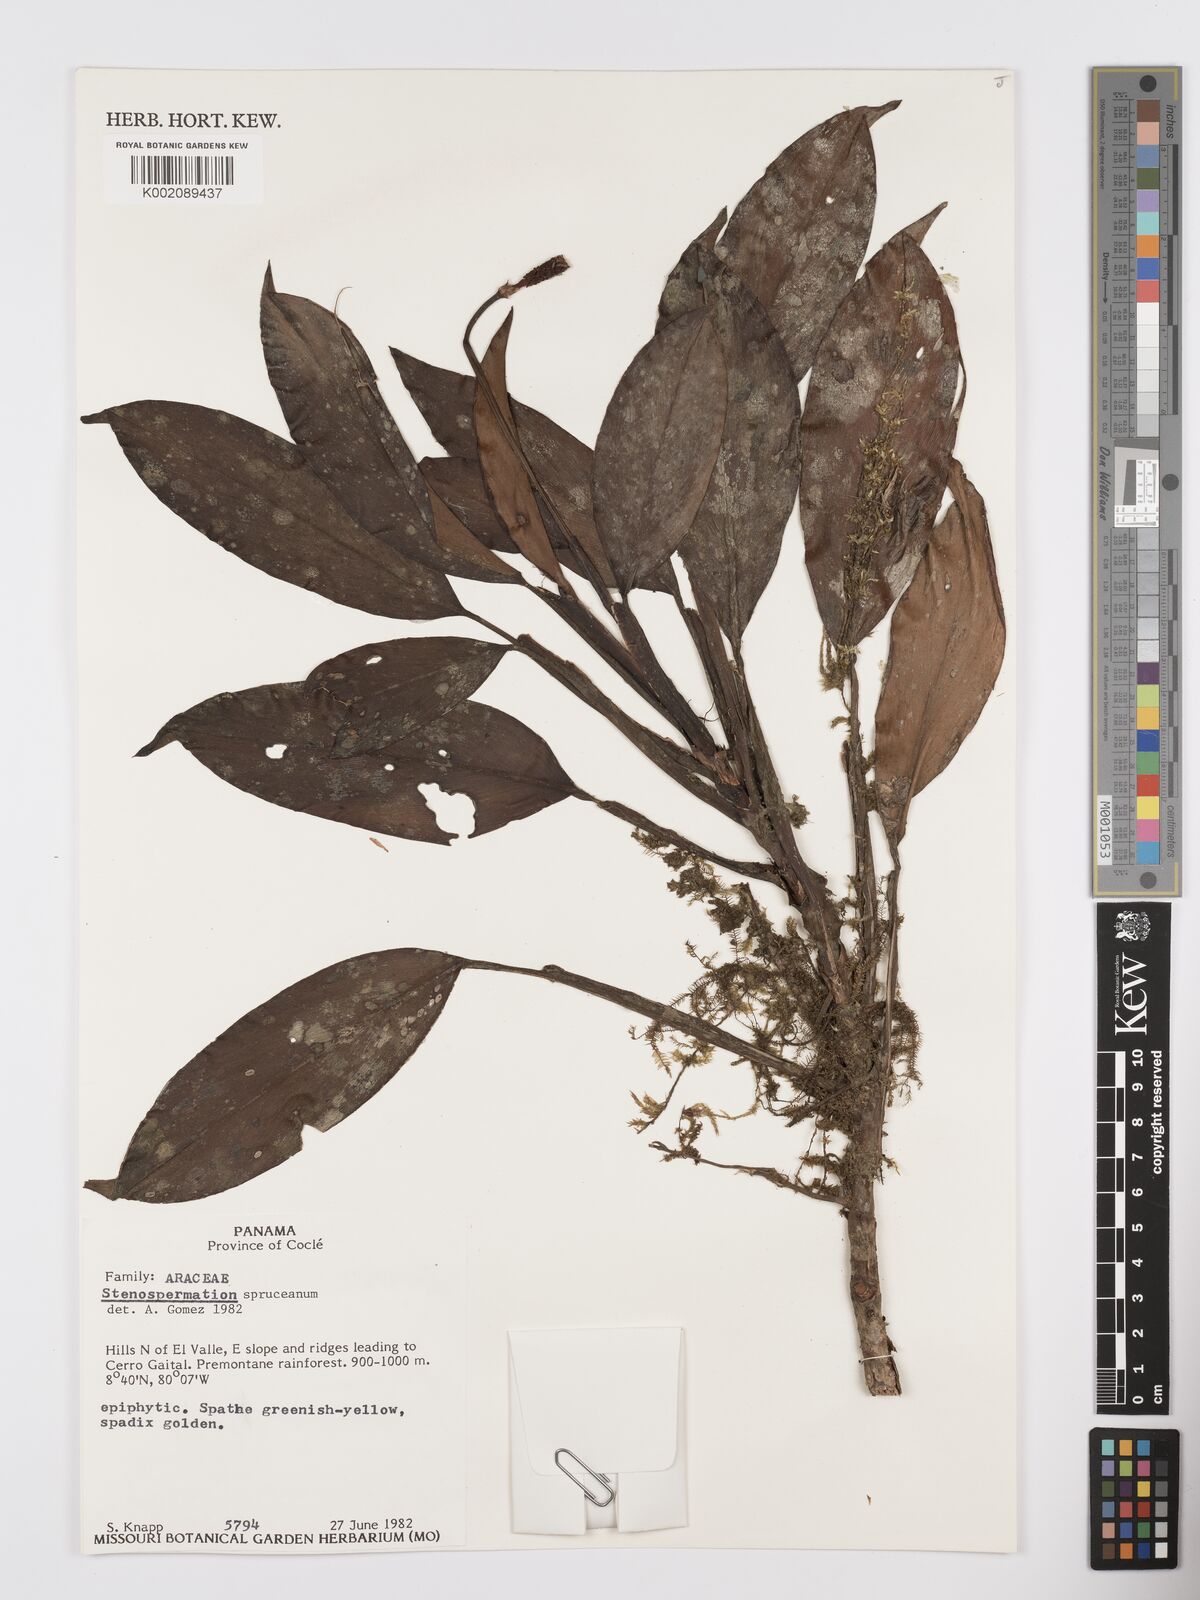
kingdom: Plantae
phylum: Tracheophyta
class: Liliopsida
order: Alismatales
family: Araceae
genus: Stenospermation
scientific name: Stenospermation spruceanum
